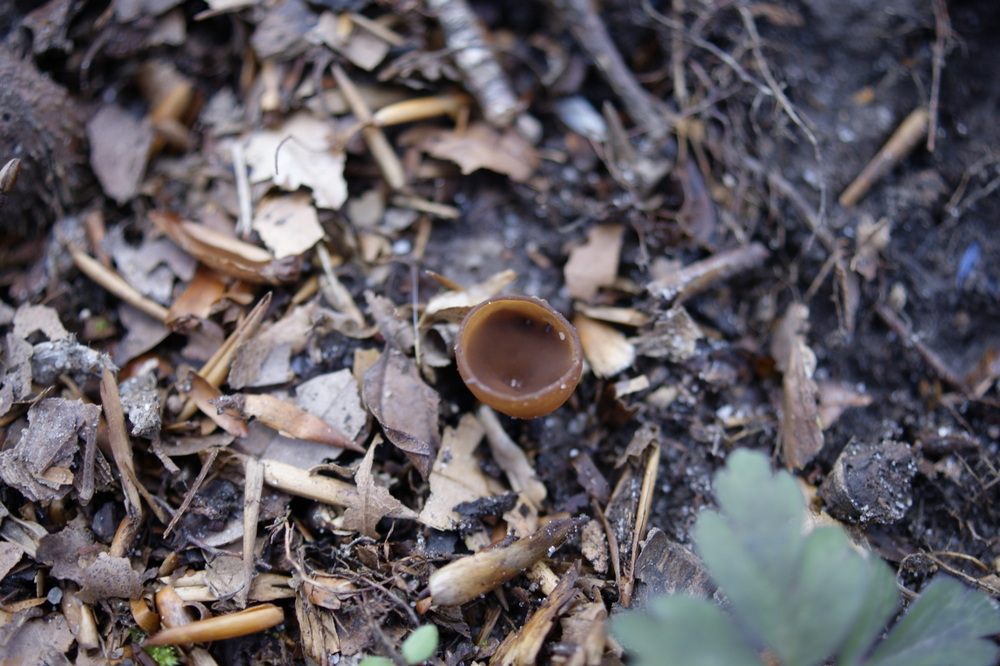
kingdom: Fungi
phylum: Ascomycota
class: Leotiomycetes
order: Helotiales
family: Sclerotiniaceae
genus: Dumontinia
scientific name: Dumontinia tuberosa
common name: anemone-knoldskive
